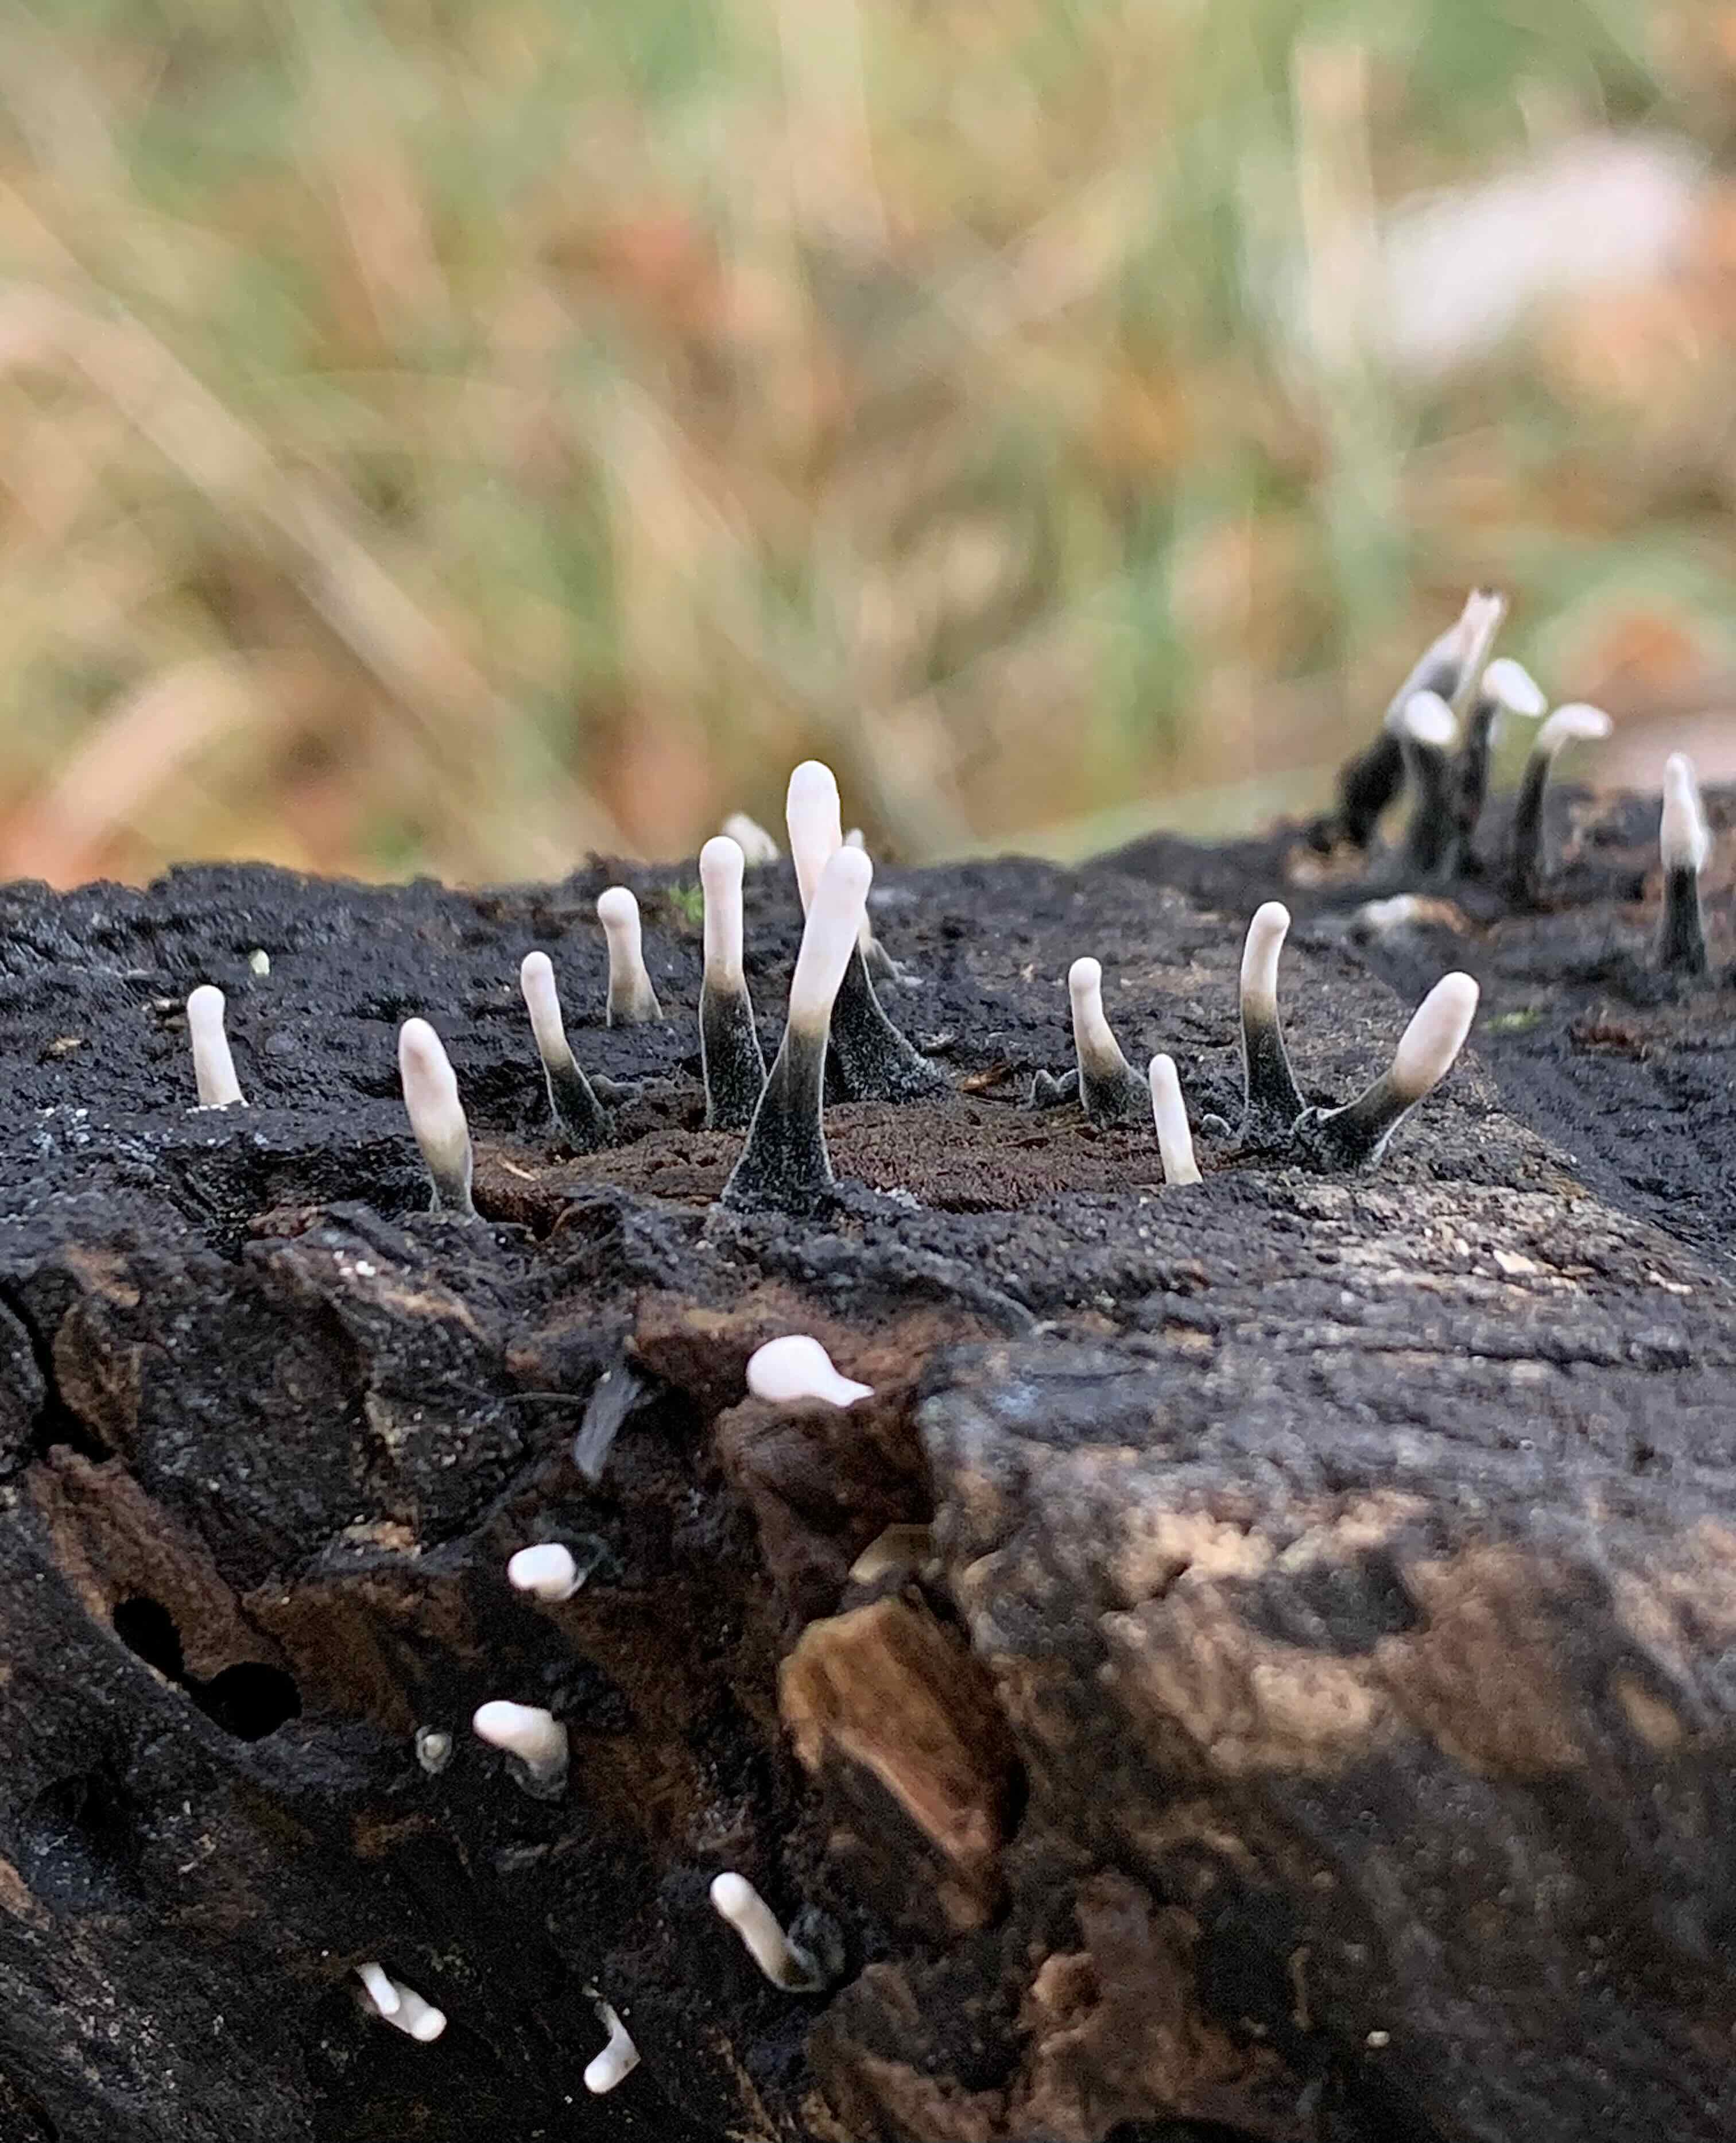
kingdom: Fungi
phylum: Ascomycota
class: Sordariomycetes
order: Xylariales
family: Xylariaceae
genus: Xylaria
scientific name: Xylaria hypoxylon
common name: grenet stødsvamp
